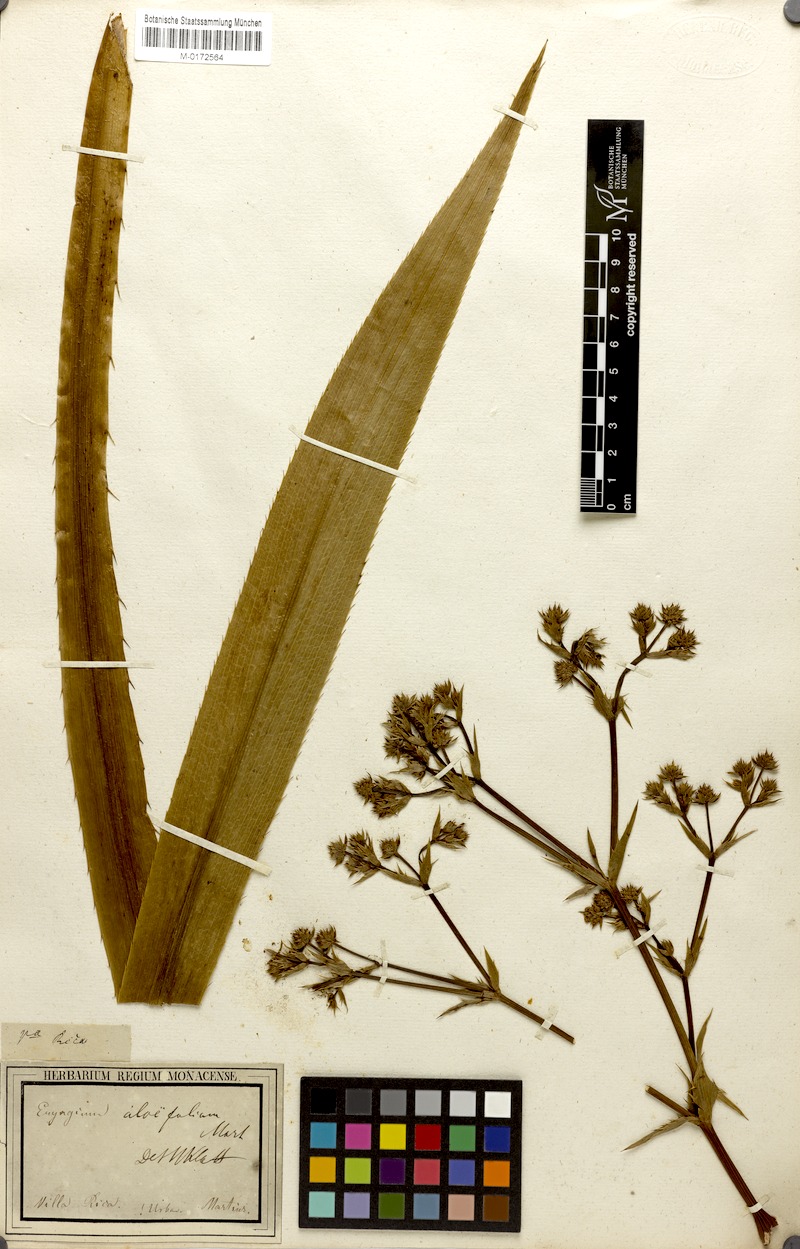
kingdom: Plantae
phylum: Tracheophyta
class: Magnoliopsida
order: Apiales
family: Apiaceae
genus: Eryngium
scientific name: Eryngium aloifolium
